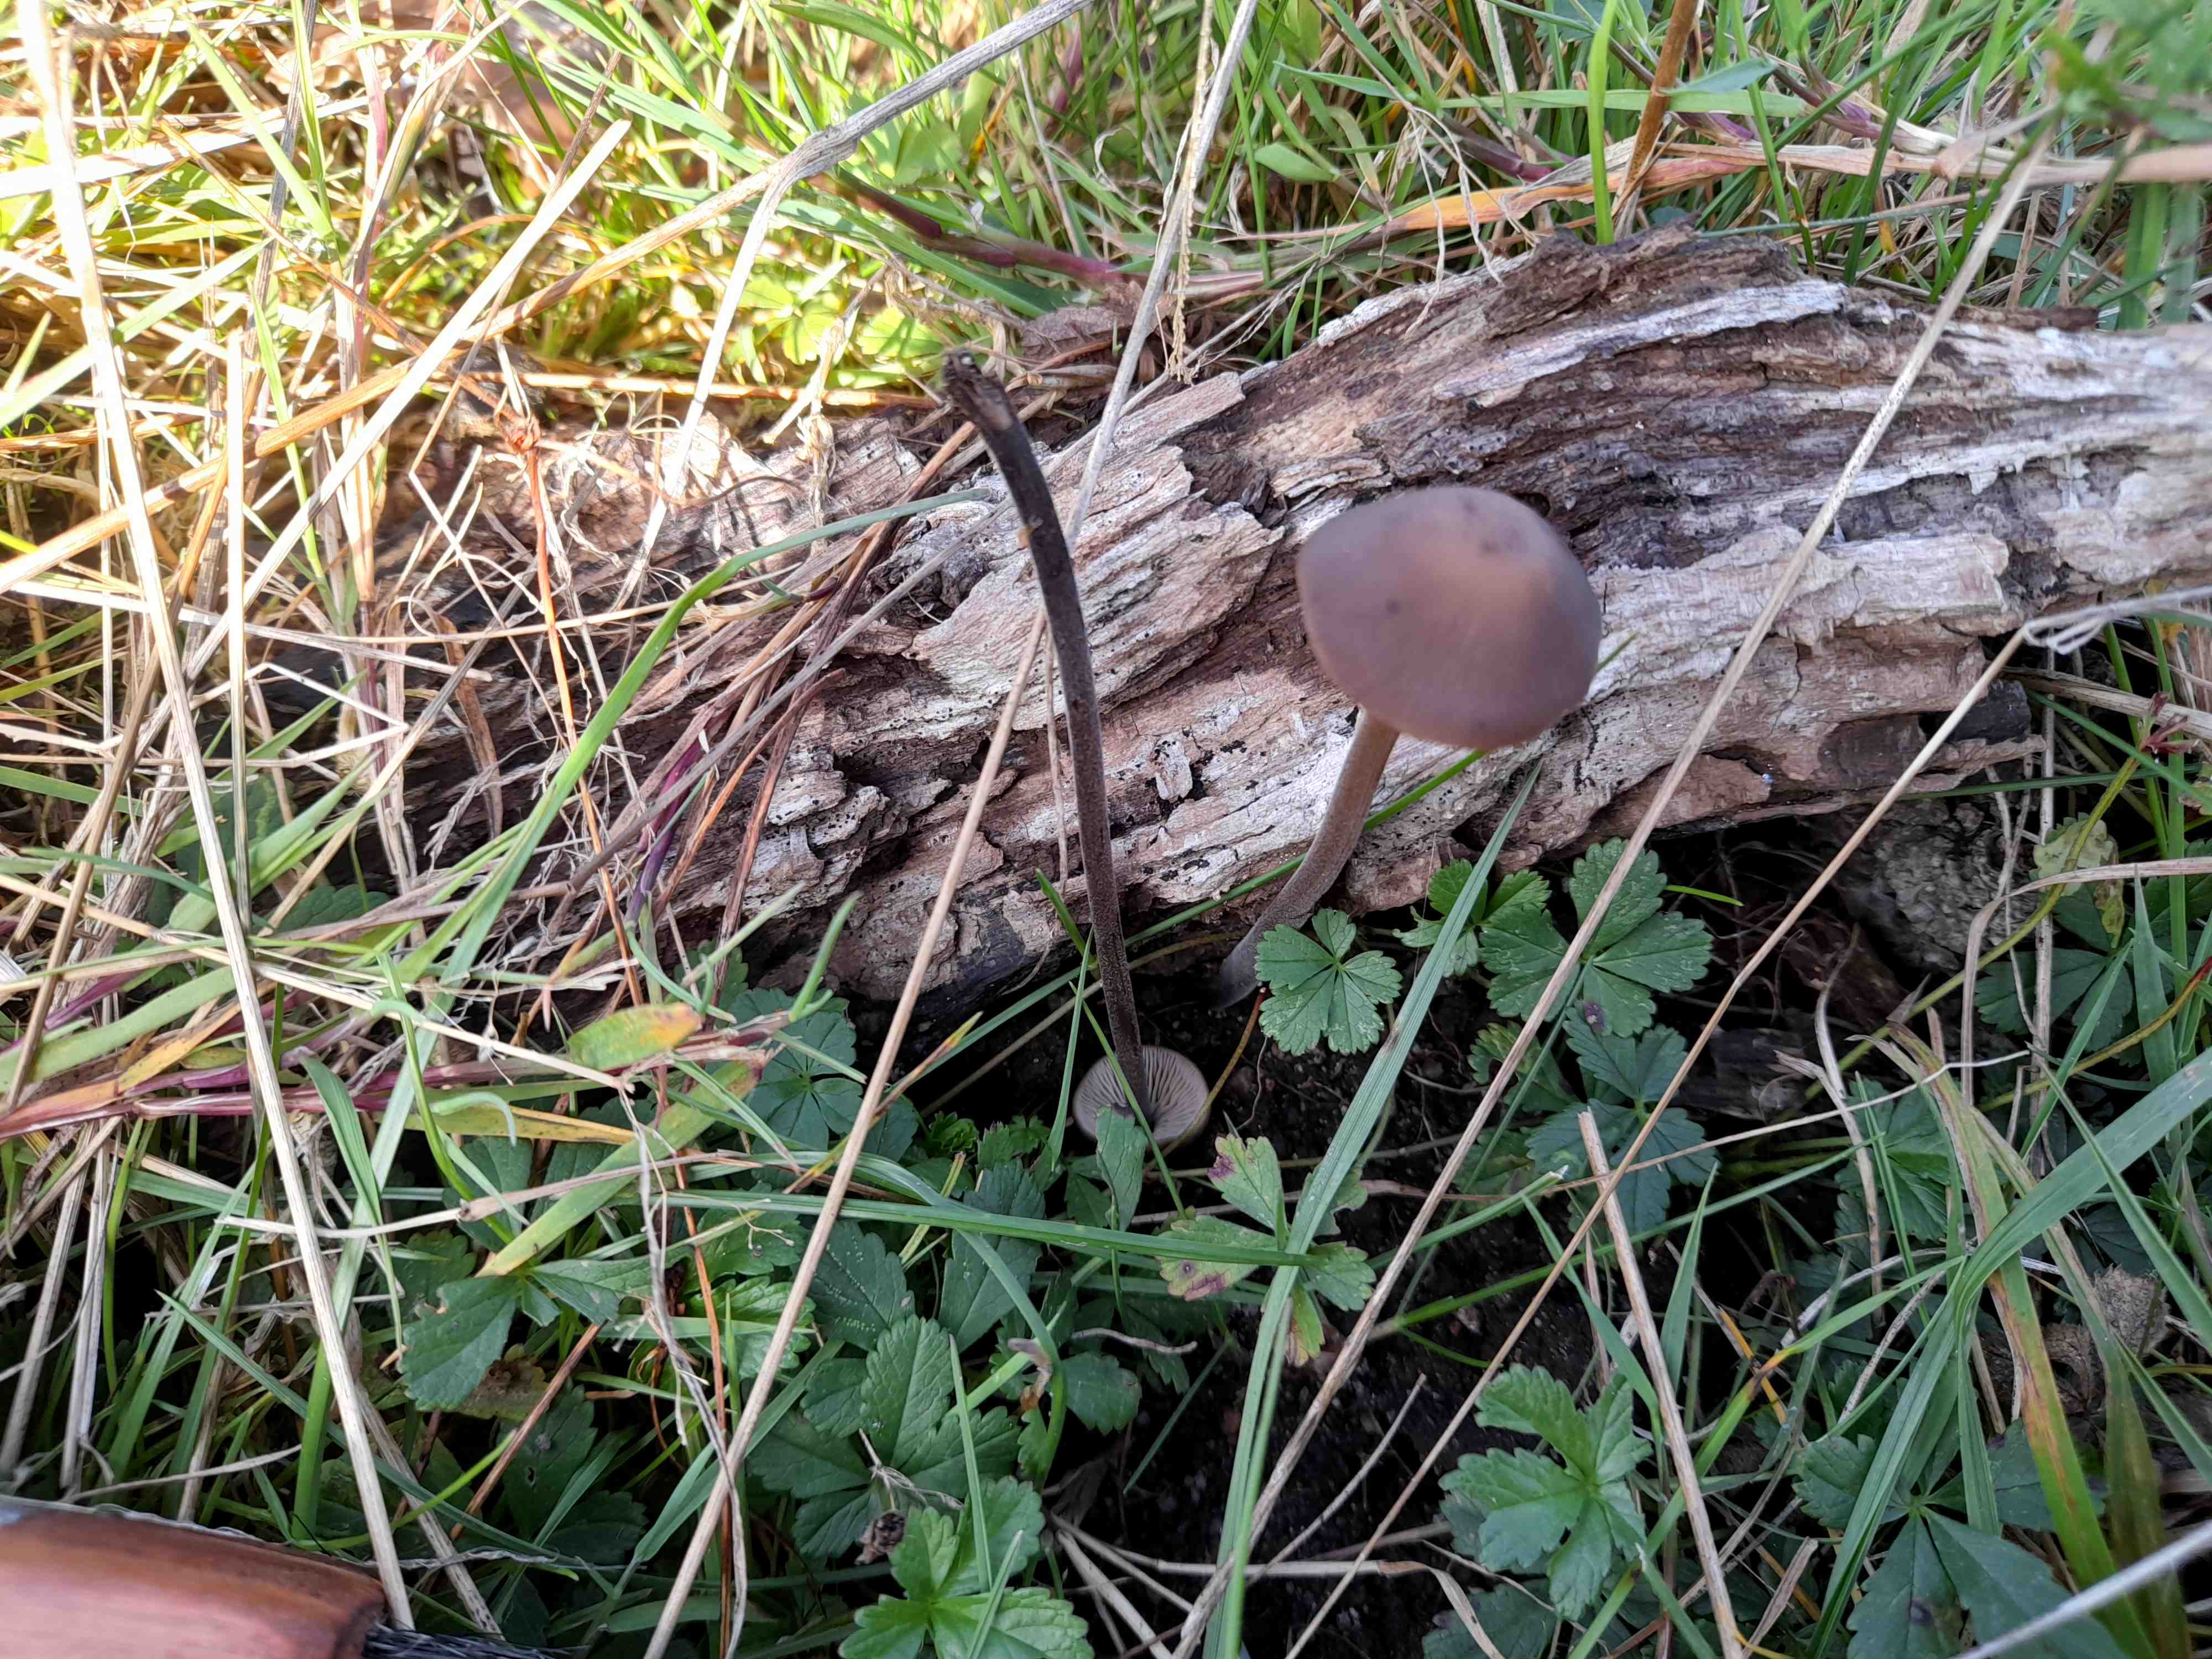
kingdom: Fungi
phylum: Basidiomycota
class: Agaricomycetes
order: Agaricales
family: Omphalotaceae
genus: Mycetinis
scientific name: Mycetinis alliaceus
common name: stor løghat
